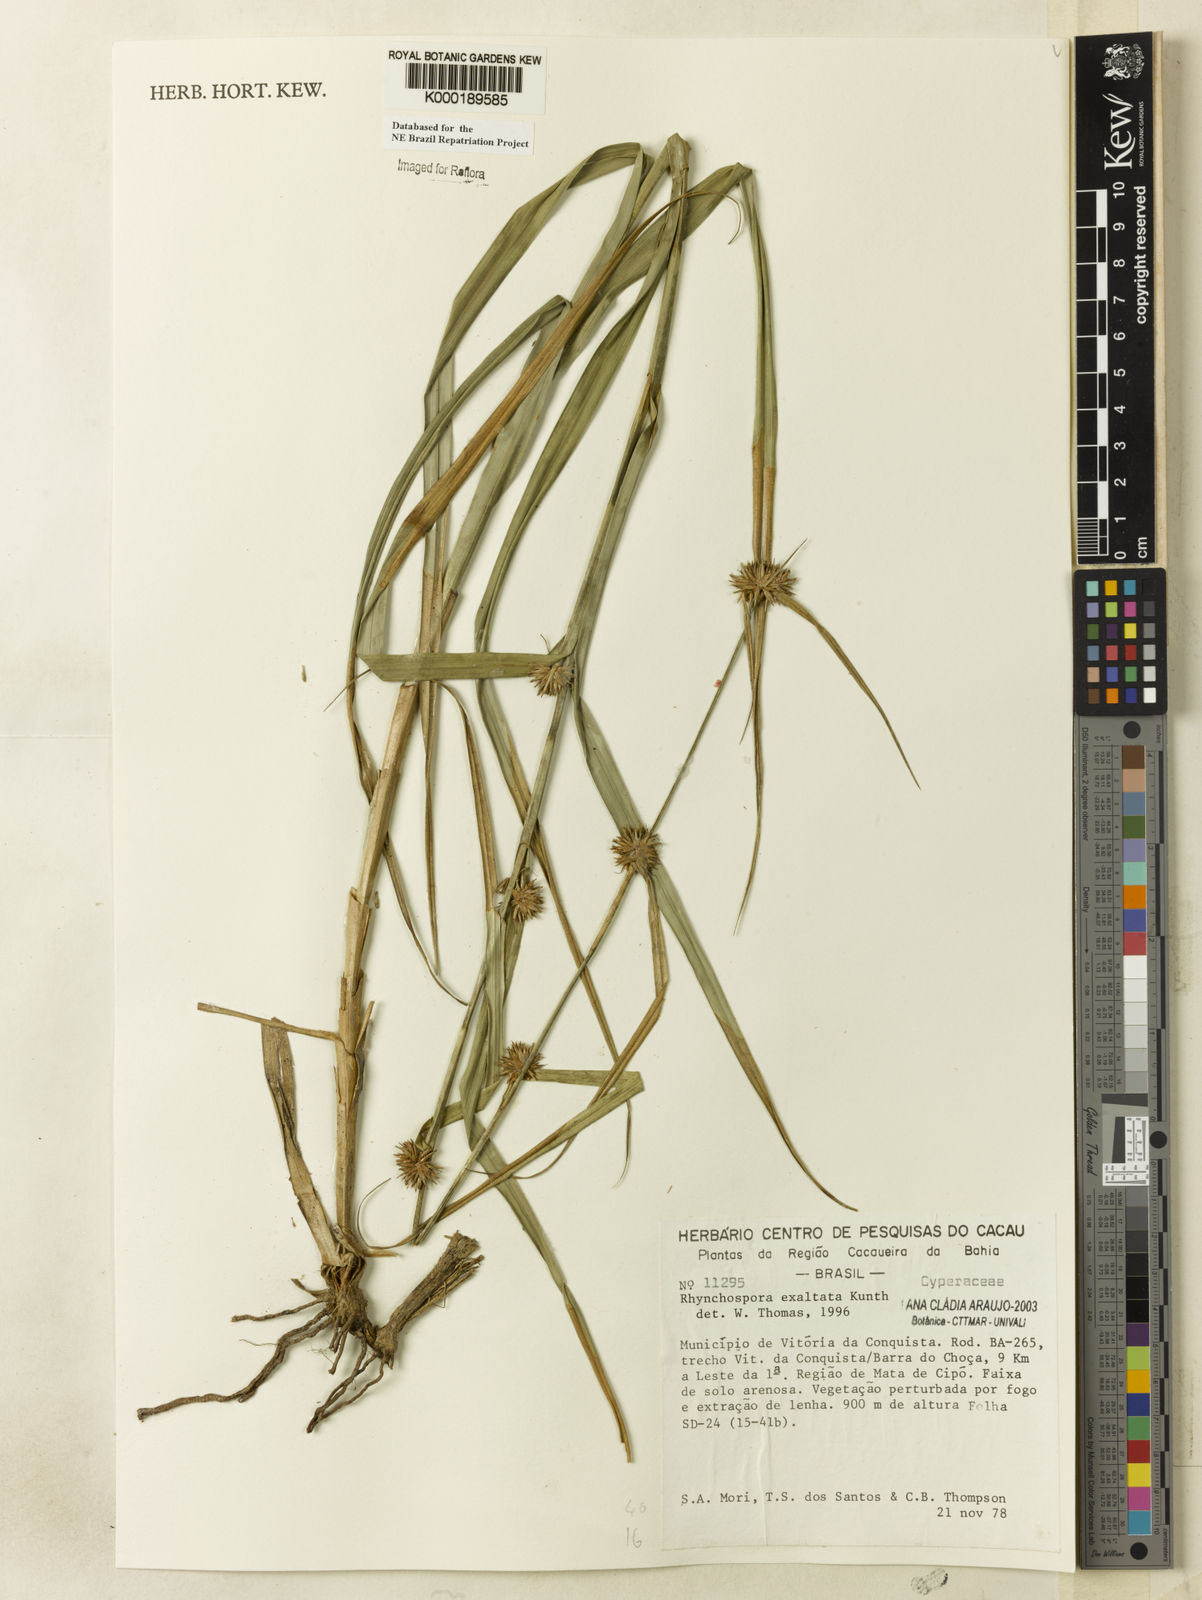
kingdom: Plantae
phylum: Tracheophyta
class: Liliopsida
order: Poales
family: Cyperaceae
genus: Rhynchospora
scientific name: Rhynchospora exaltata
